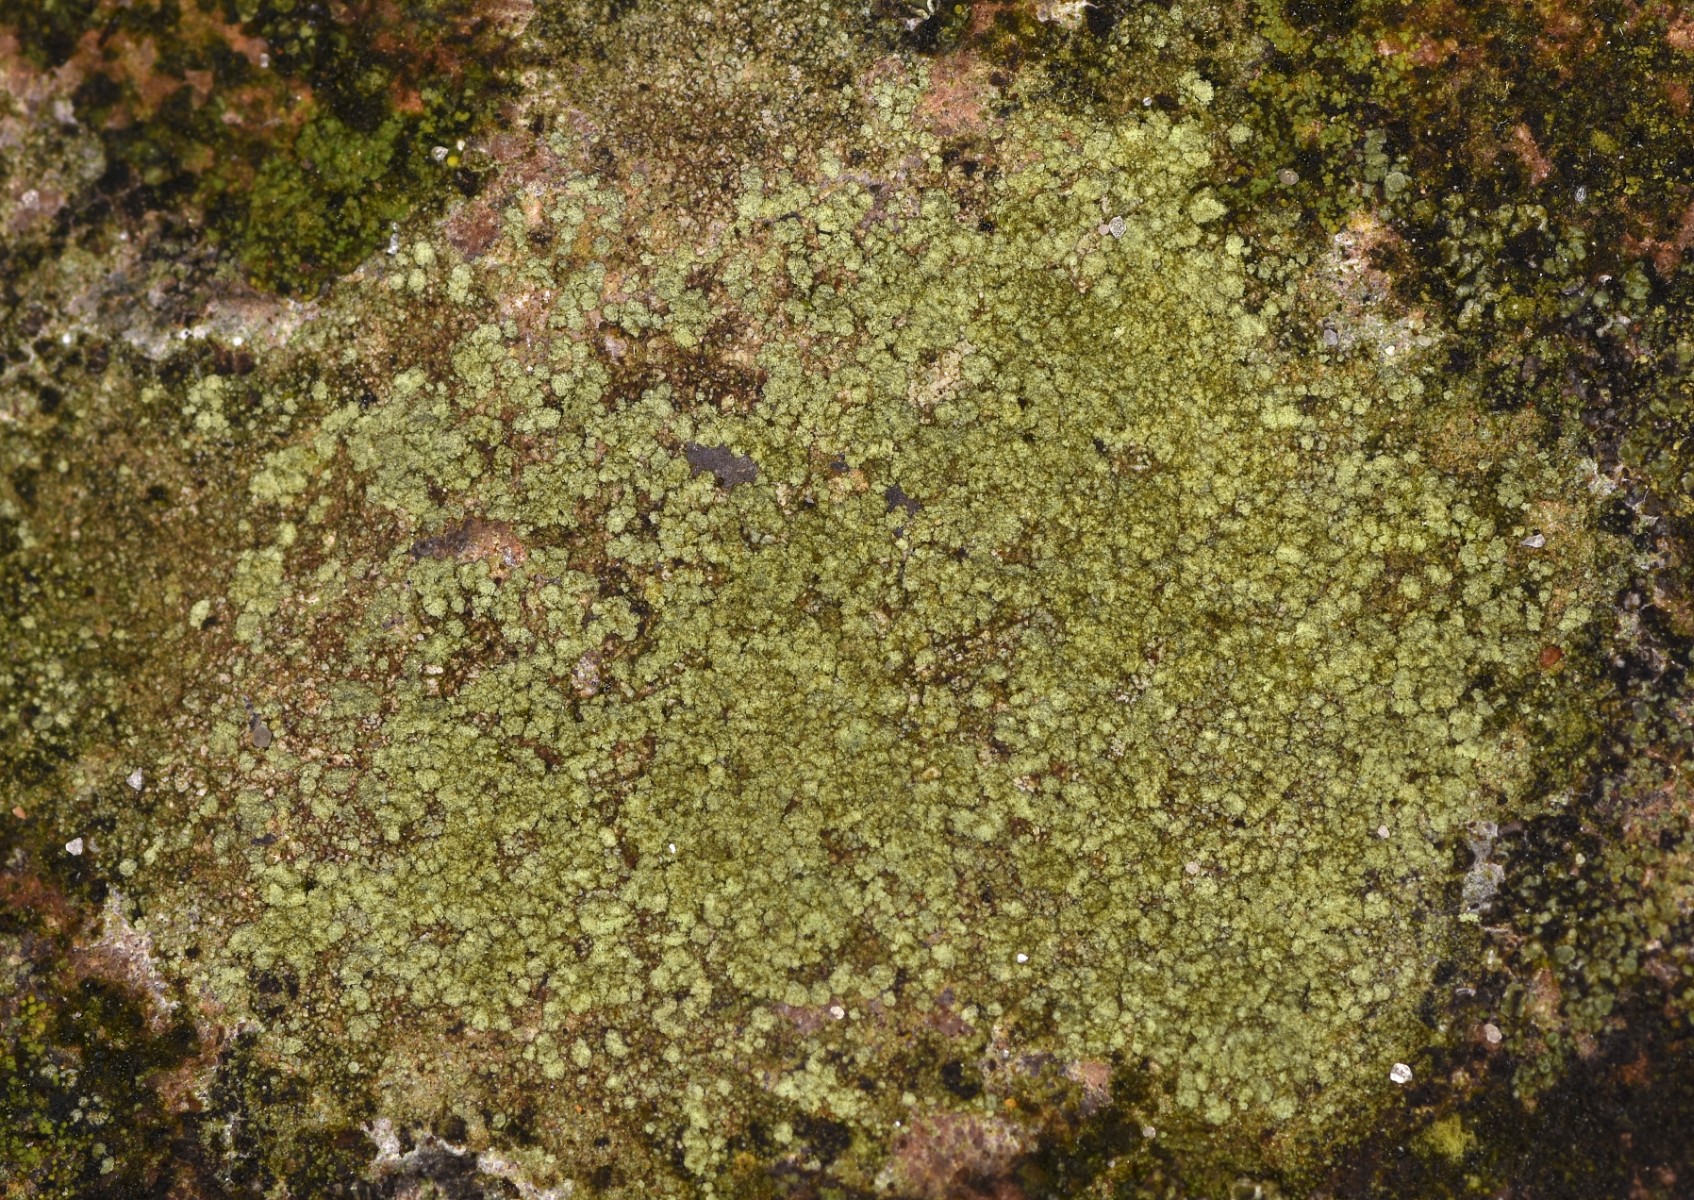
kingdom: Fungi
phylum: Ascomycota
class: Lecanoromycetes
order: Lecanorales
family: Lecanoraceae
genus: Lecidella
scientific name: Lecidella scabra
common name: skurvet skivelav
